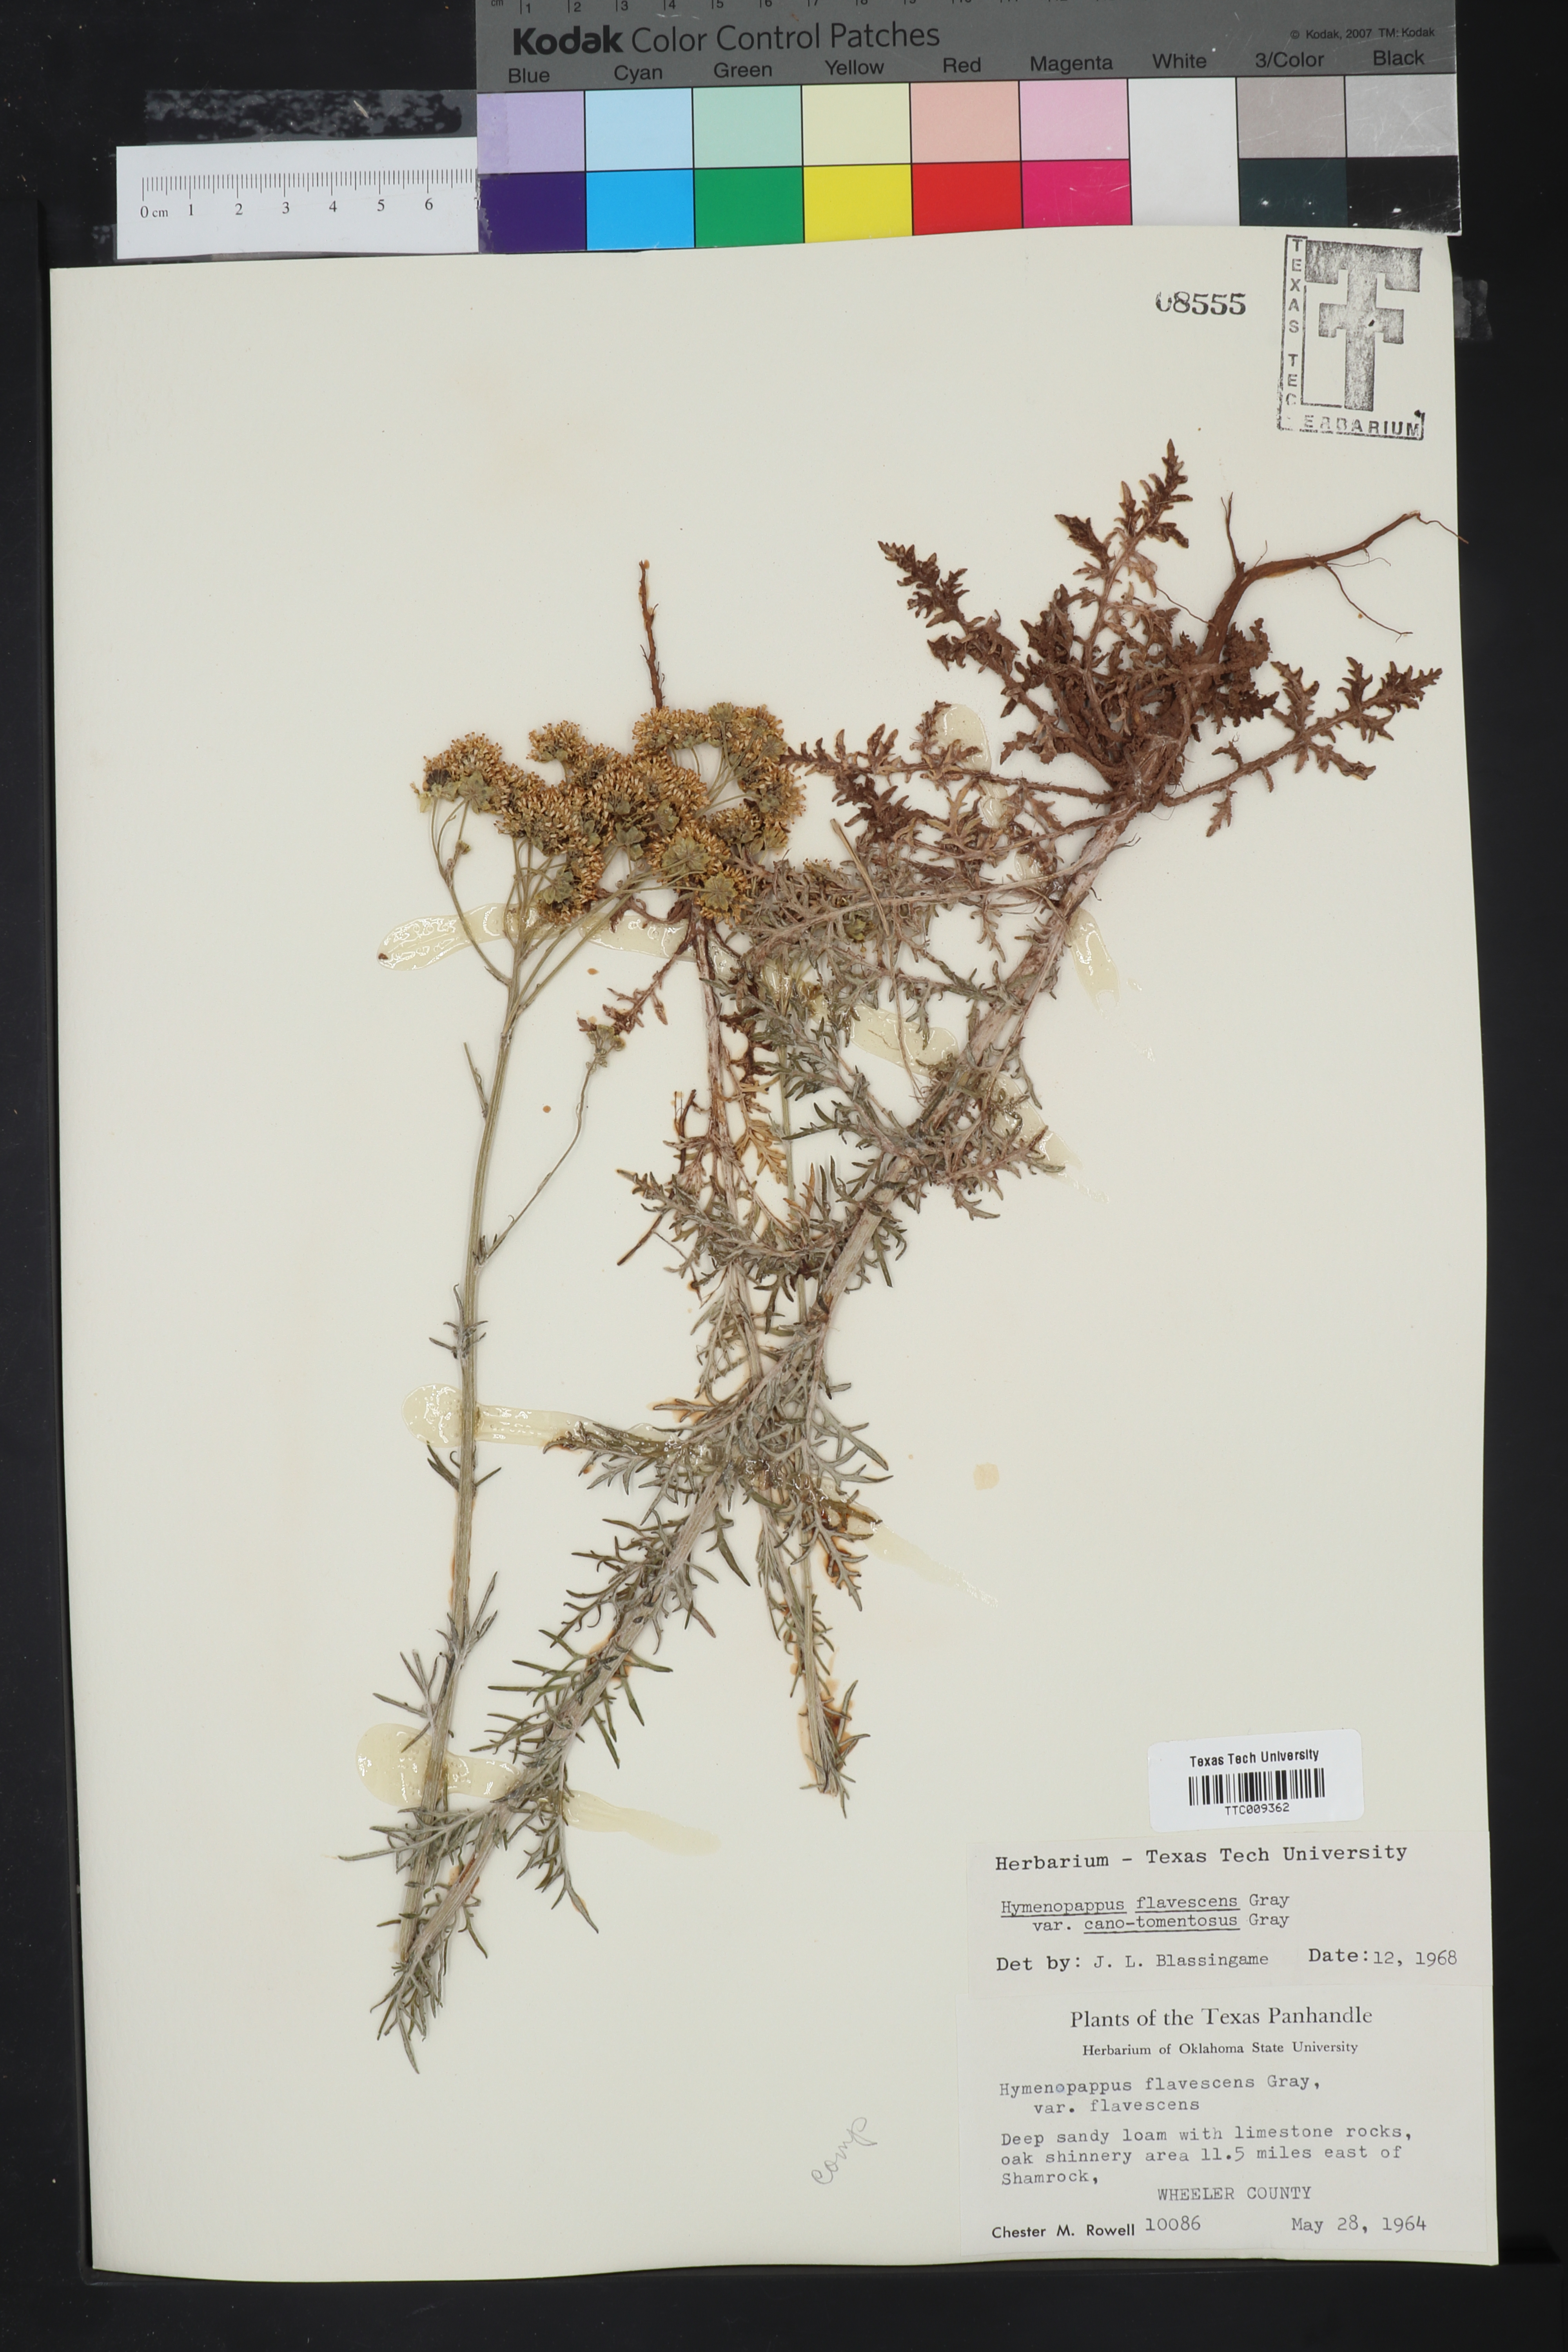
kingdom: Plantae
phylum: Tracheophyta
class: Magnoliopsida
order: Asterales
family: Asteraceae
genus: Hymenopappus
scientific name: Hymenopappus flavescens
